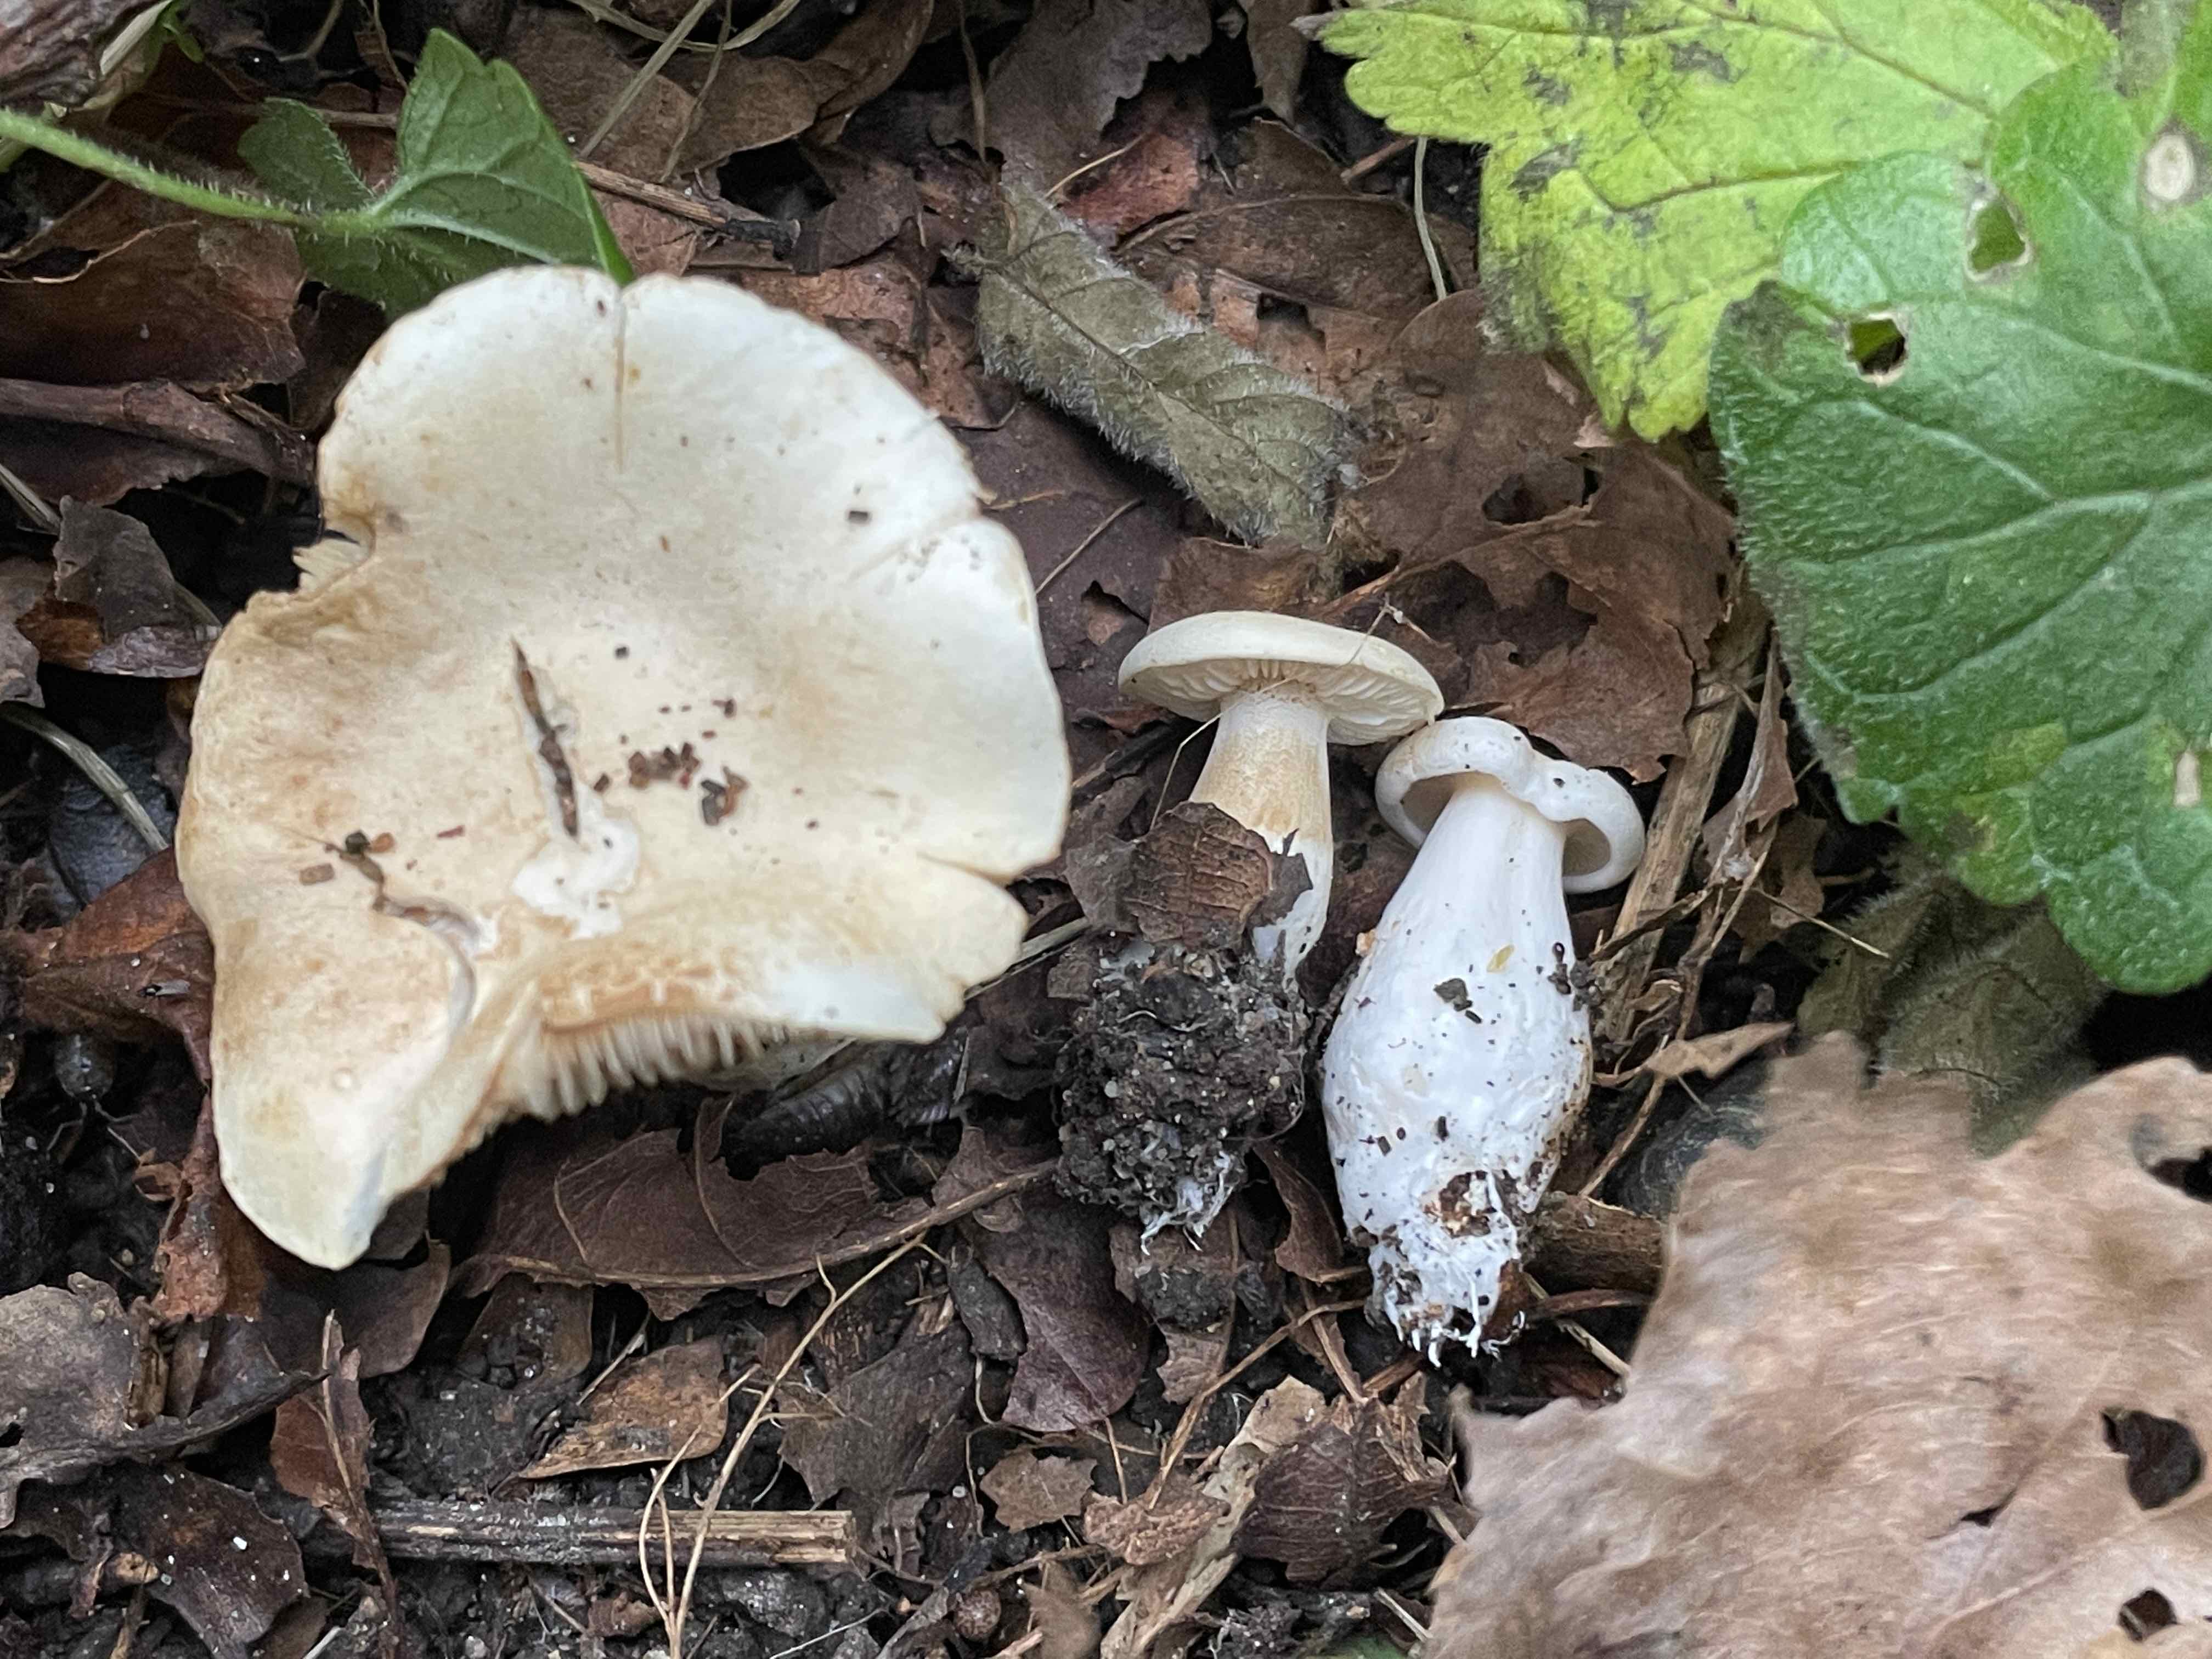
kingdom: Fungi
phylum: Basidiomycota
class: Agaricomycetes
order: Agaricales
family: Tricholomataceae
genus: Tricholoma
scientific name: Tricholoma lascivum
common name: stinkende ridderhat
